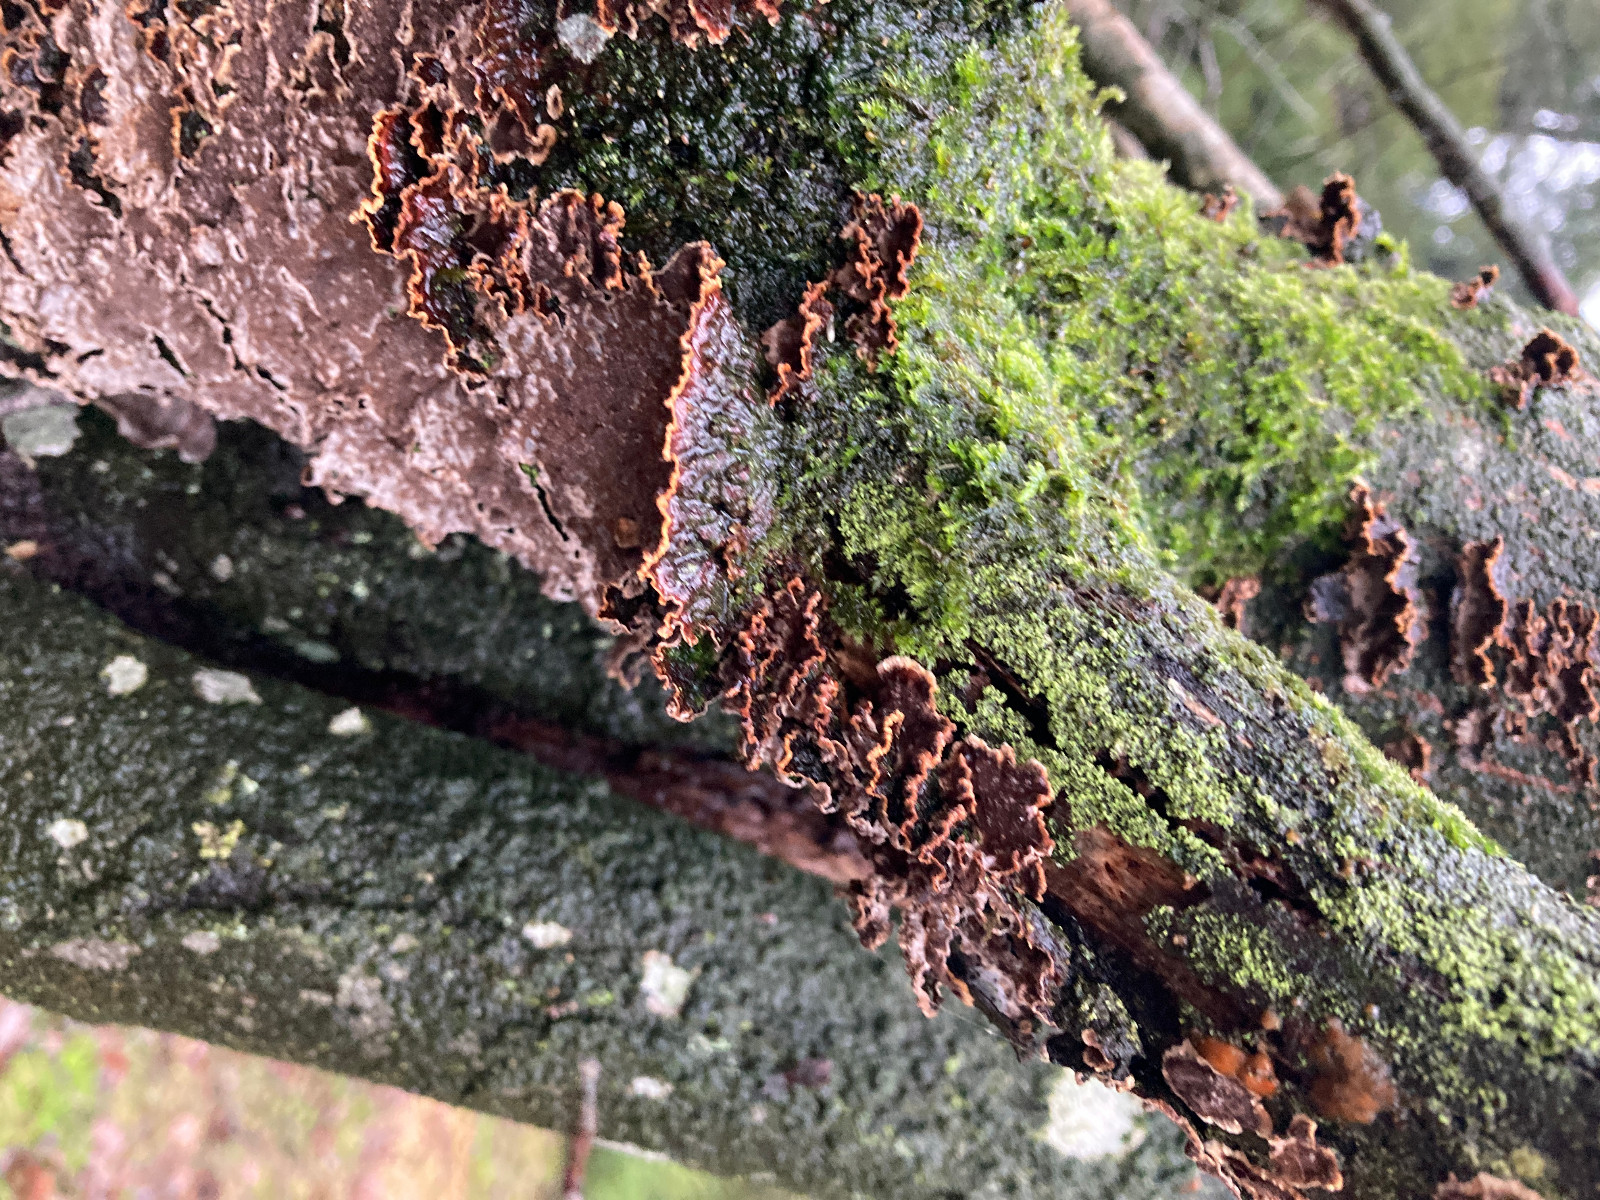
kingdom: Fungi
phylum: Basidiomycota
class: Agaricomycetes
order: Hymenochaetales
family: Hymenochaetaceae
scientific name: Hymenochaetaceae
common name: børstesvampfamilien
